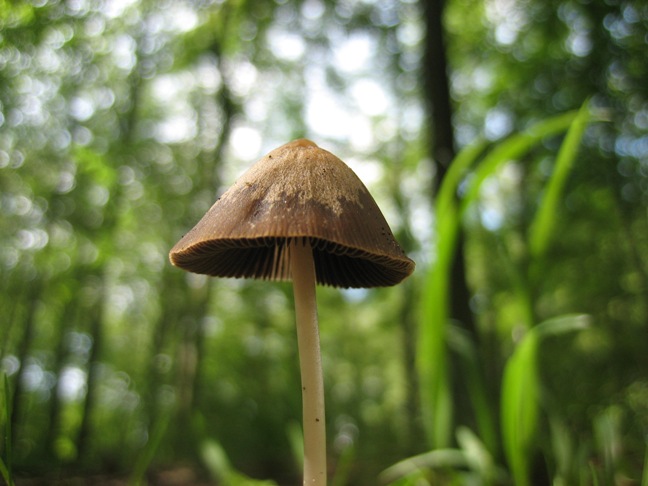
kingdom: Fungi
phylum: Basidiomycota
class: Agaricomycetes
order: Agaricales
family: Psathyrellaceae
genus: Parasola
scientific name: Parasola conopilea
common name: kegle-hjulhat
